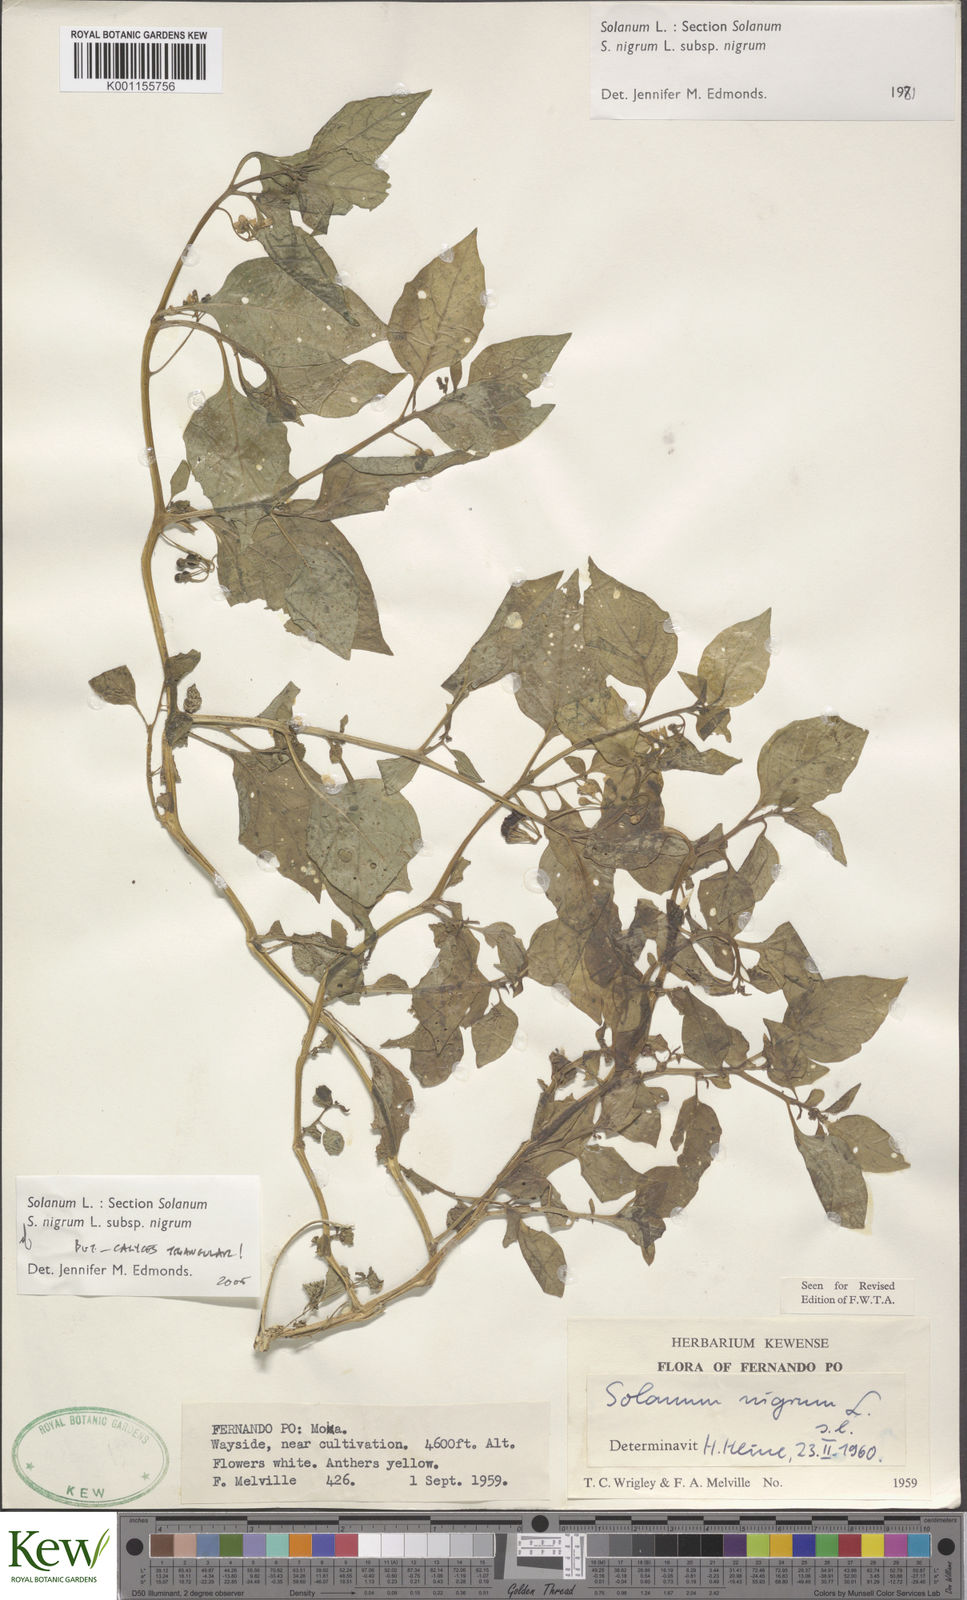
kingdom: Plantae
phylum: Tracheophyta
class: Magnoliopsida
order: Solanales
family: Solanaceae
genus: Solanum
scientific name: Solanum scabrum
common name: Garden-huckleberry
